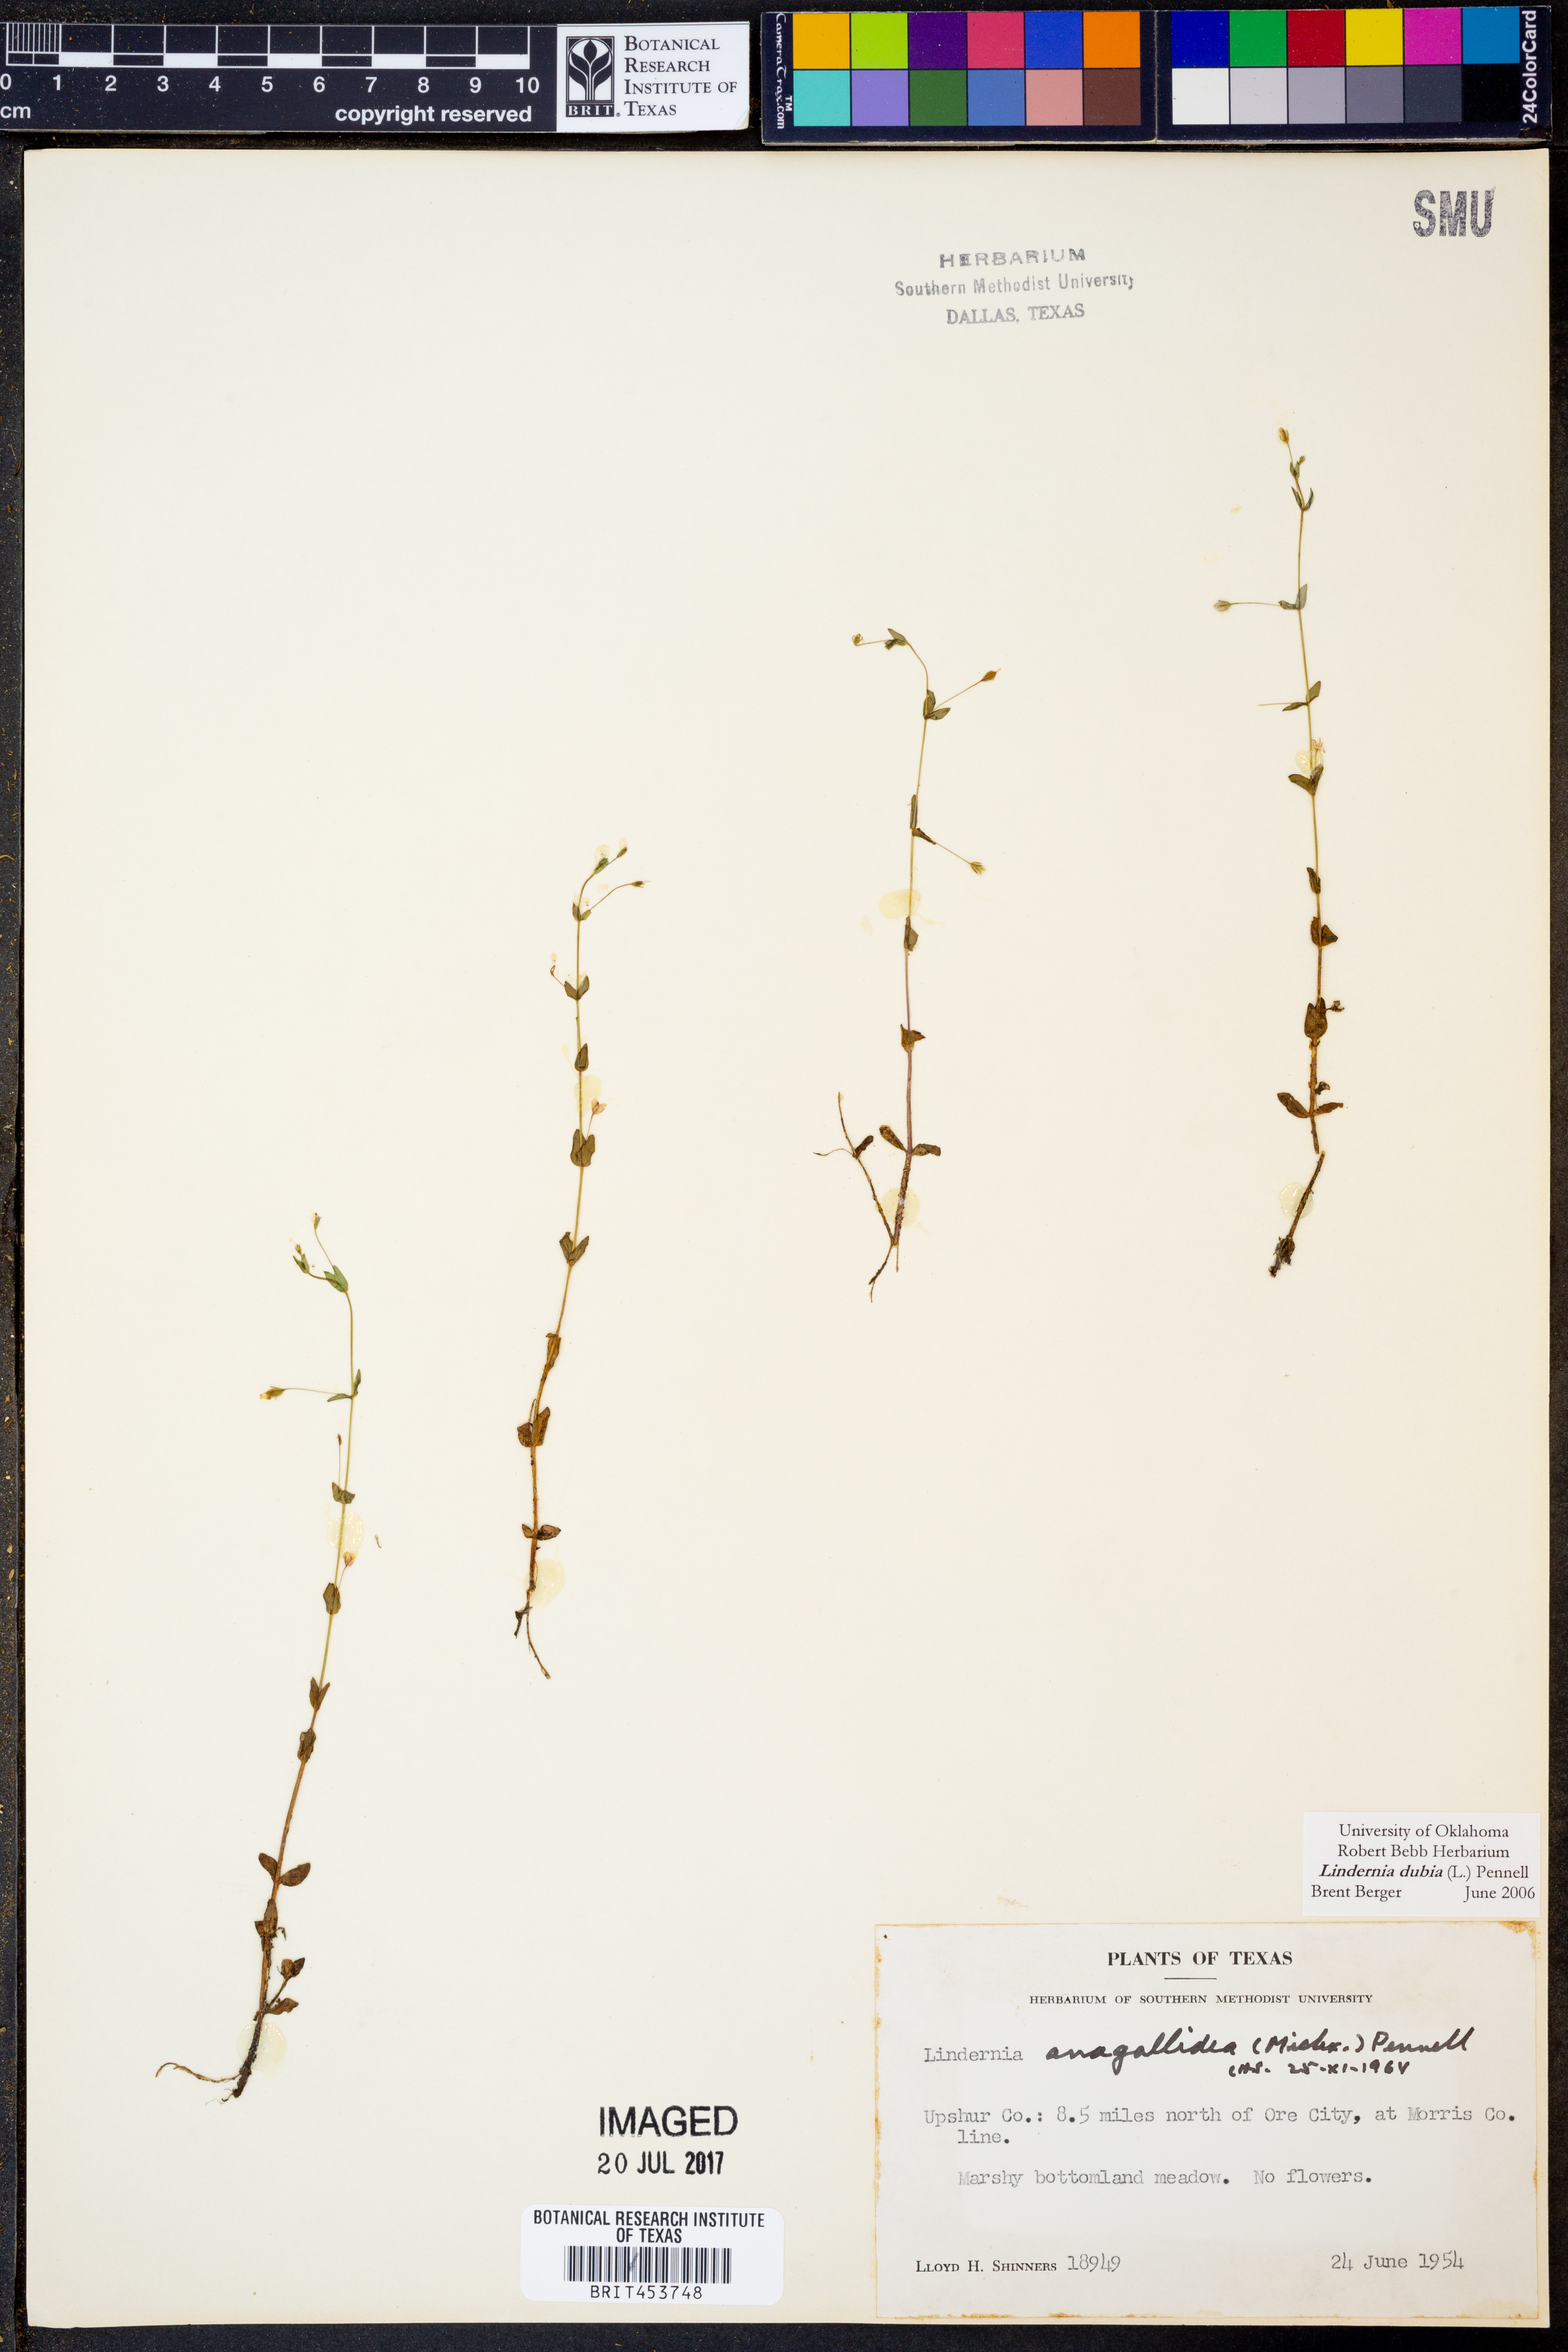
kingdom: Plantae
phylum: Tracheophyta
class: Magnoliopsida
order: Lamiales
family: Linderniaceae
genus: Lindernia
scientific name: Lindernia dubia
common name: Annual false pimpernel
